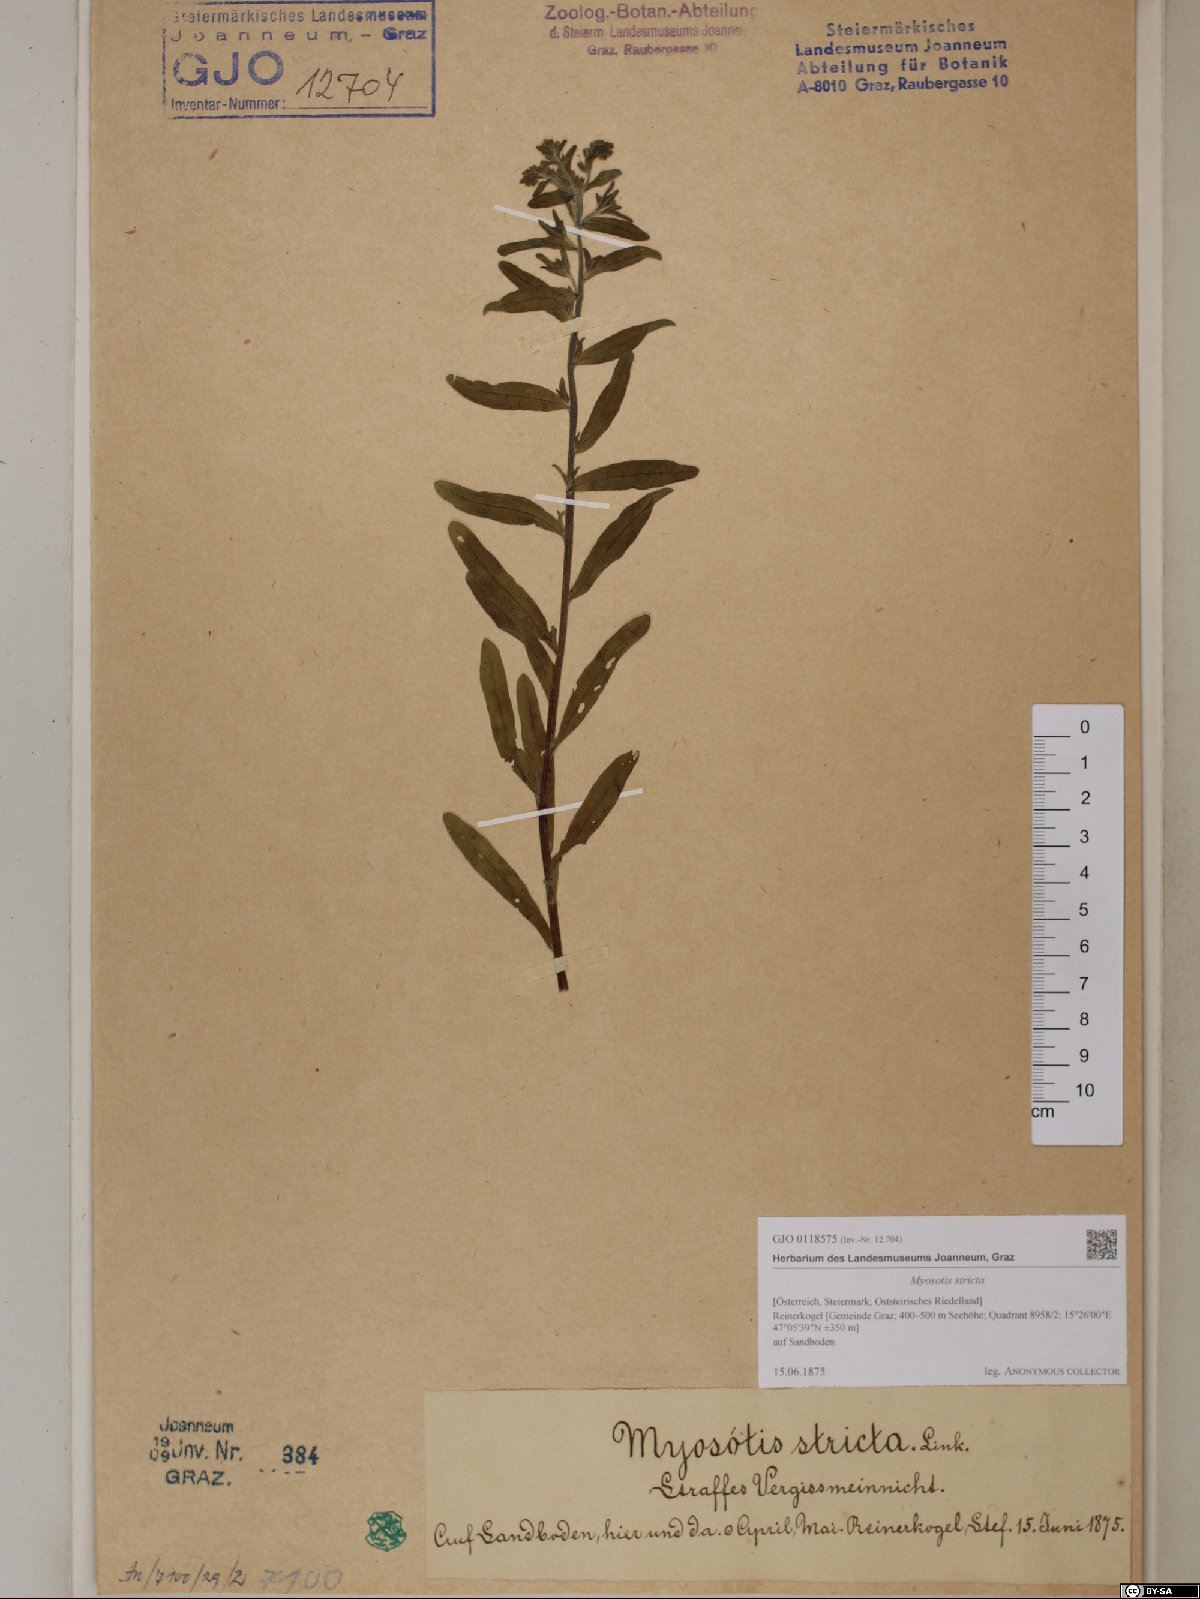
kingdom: Plantae
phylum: Tracheophyta
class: Magnoliopsida
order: Boraginales
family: Boraginaceae
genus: Myosotis
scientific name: Myosotis stricta
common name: Strict forget-me-not
